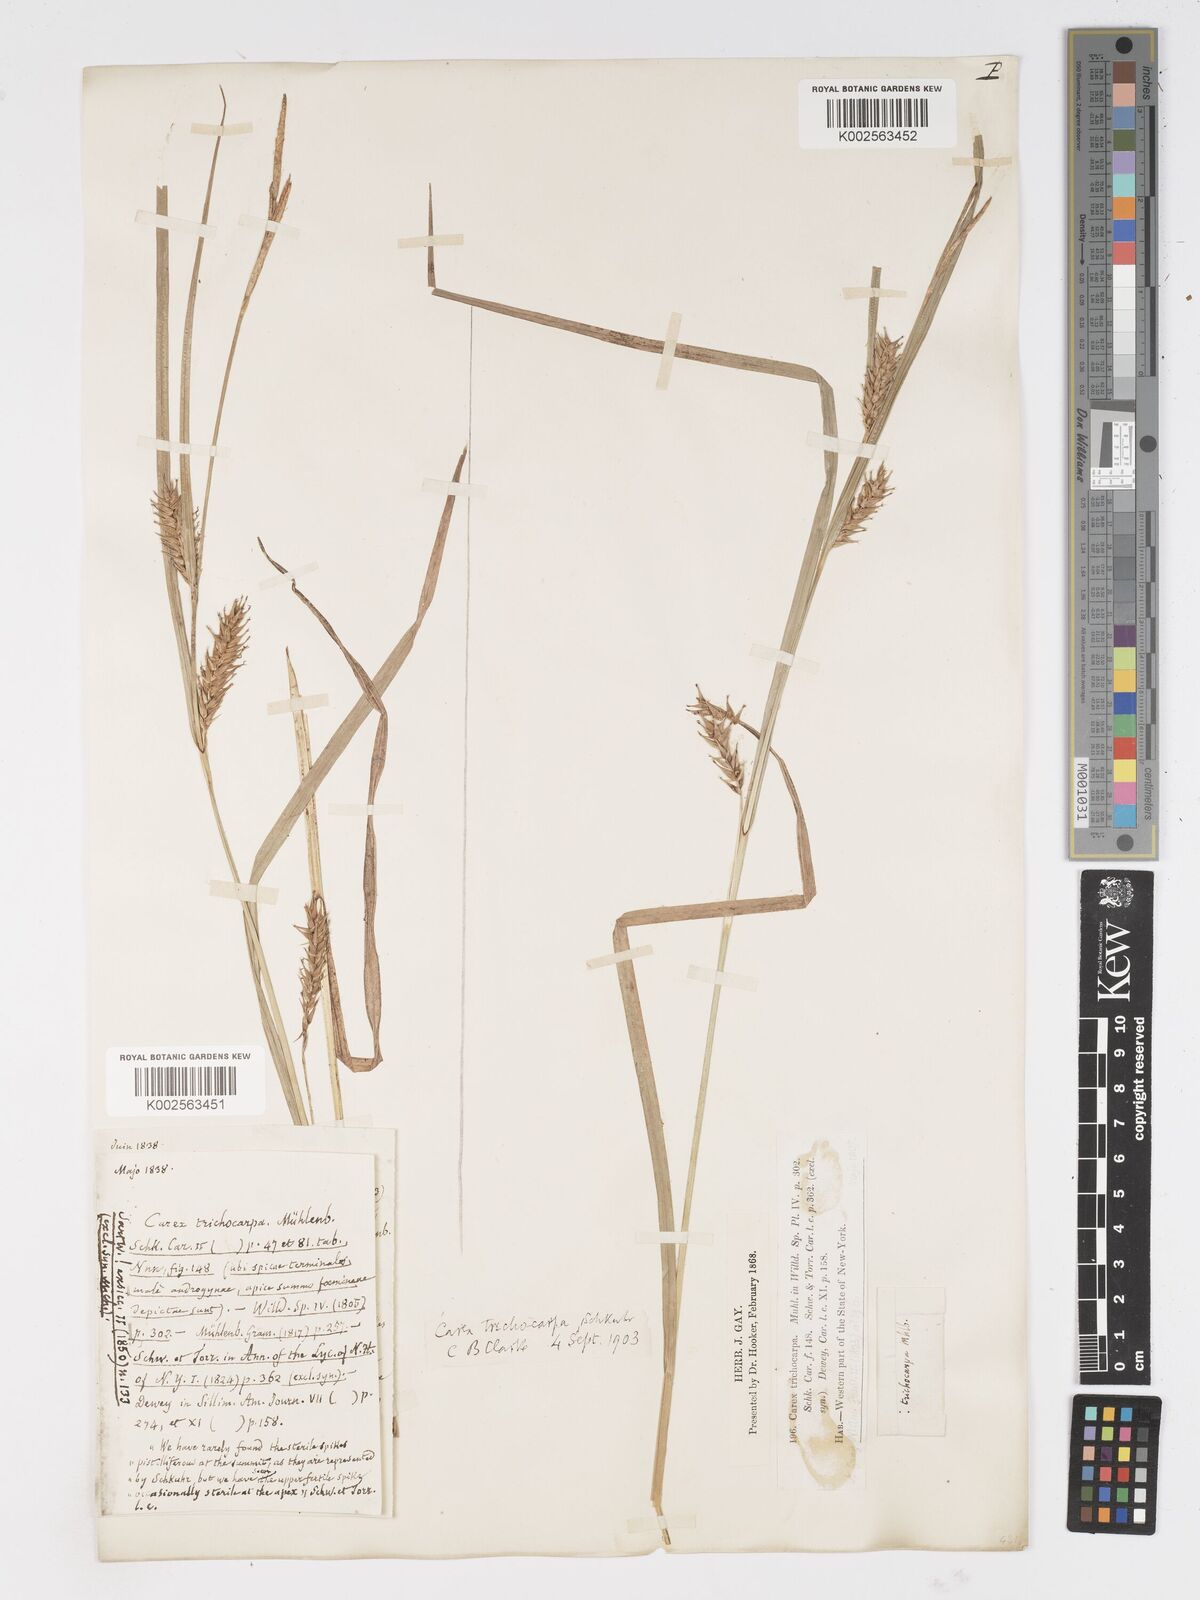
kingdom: Plantae
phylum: Tracheophyta
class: Liliopsida
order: Poales
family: Cyperaceae
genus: Carex
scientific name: Carex trichocarpa
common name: Hairy-fruited lake sedge
